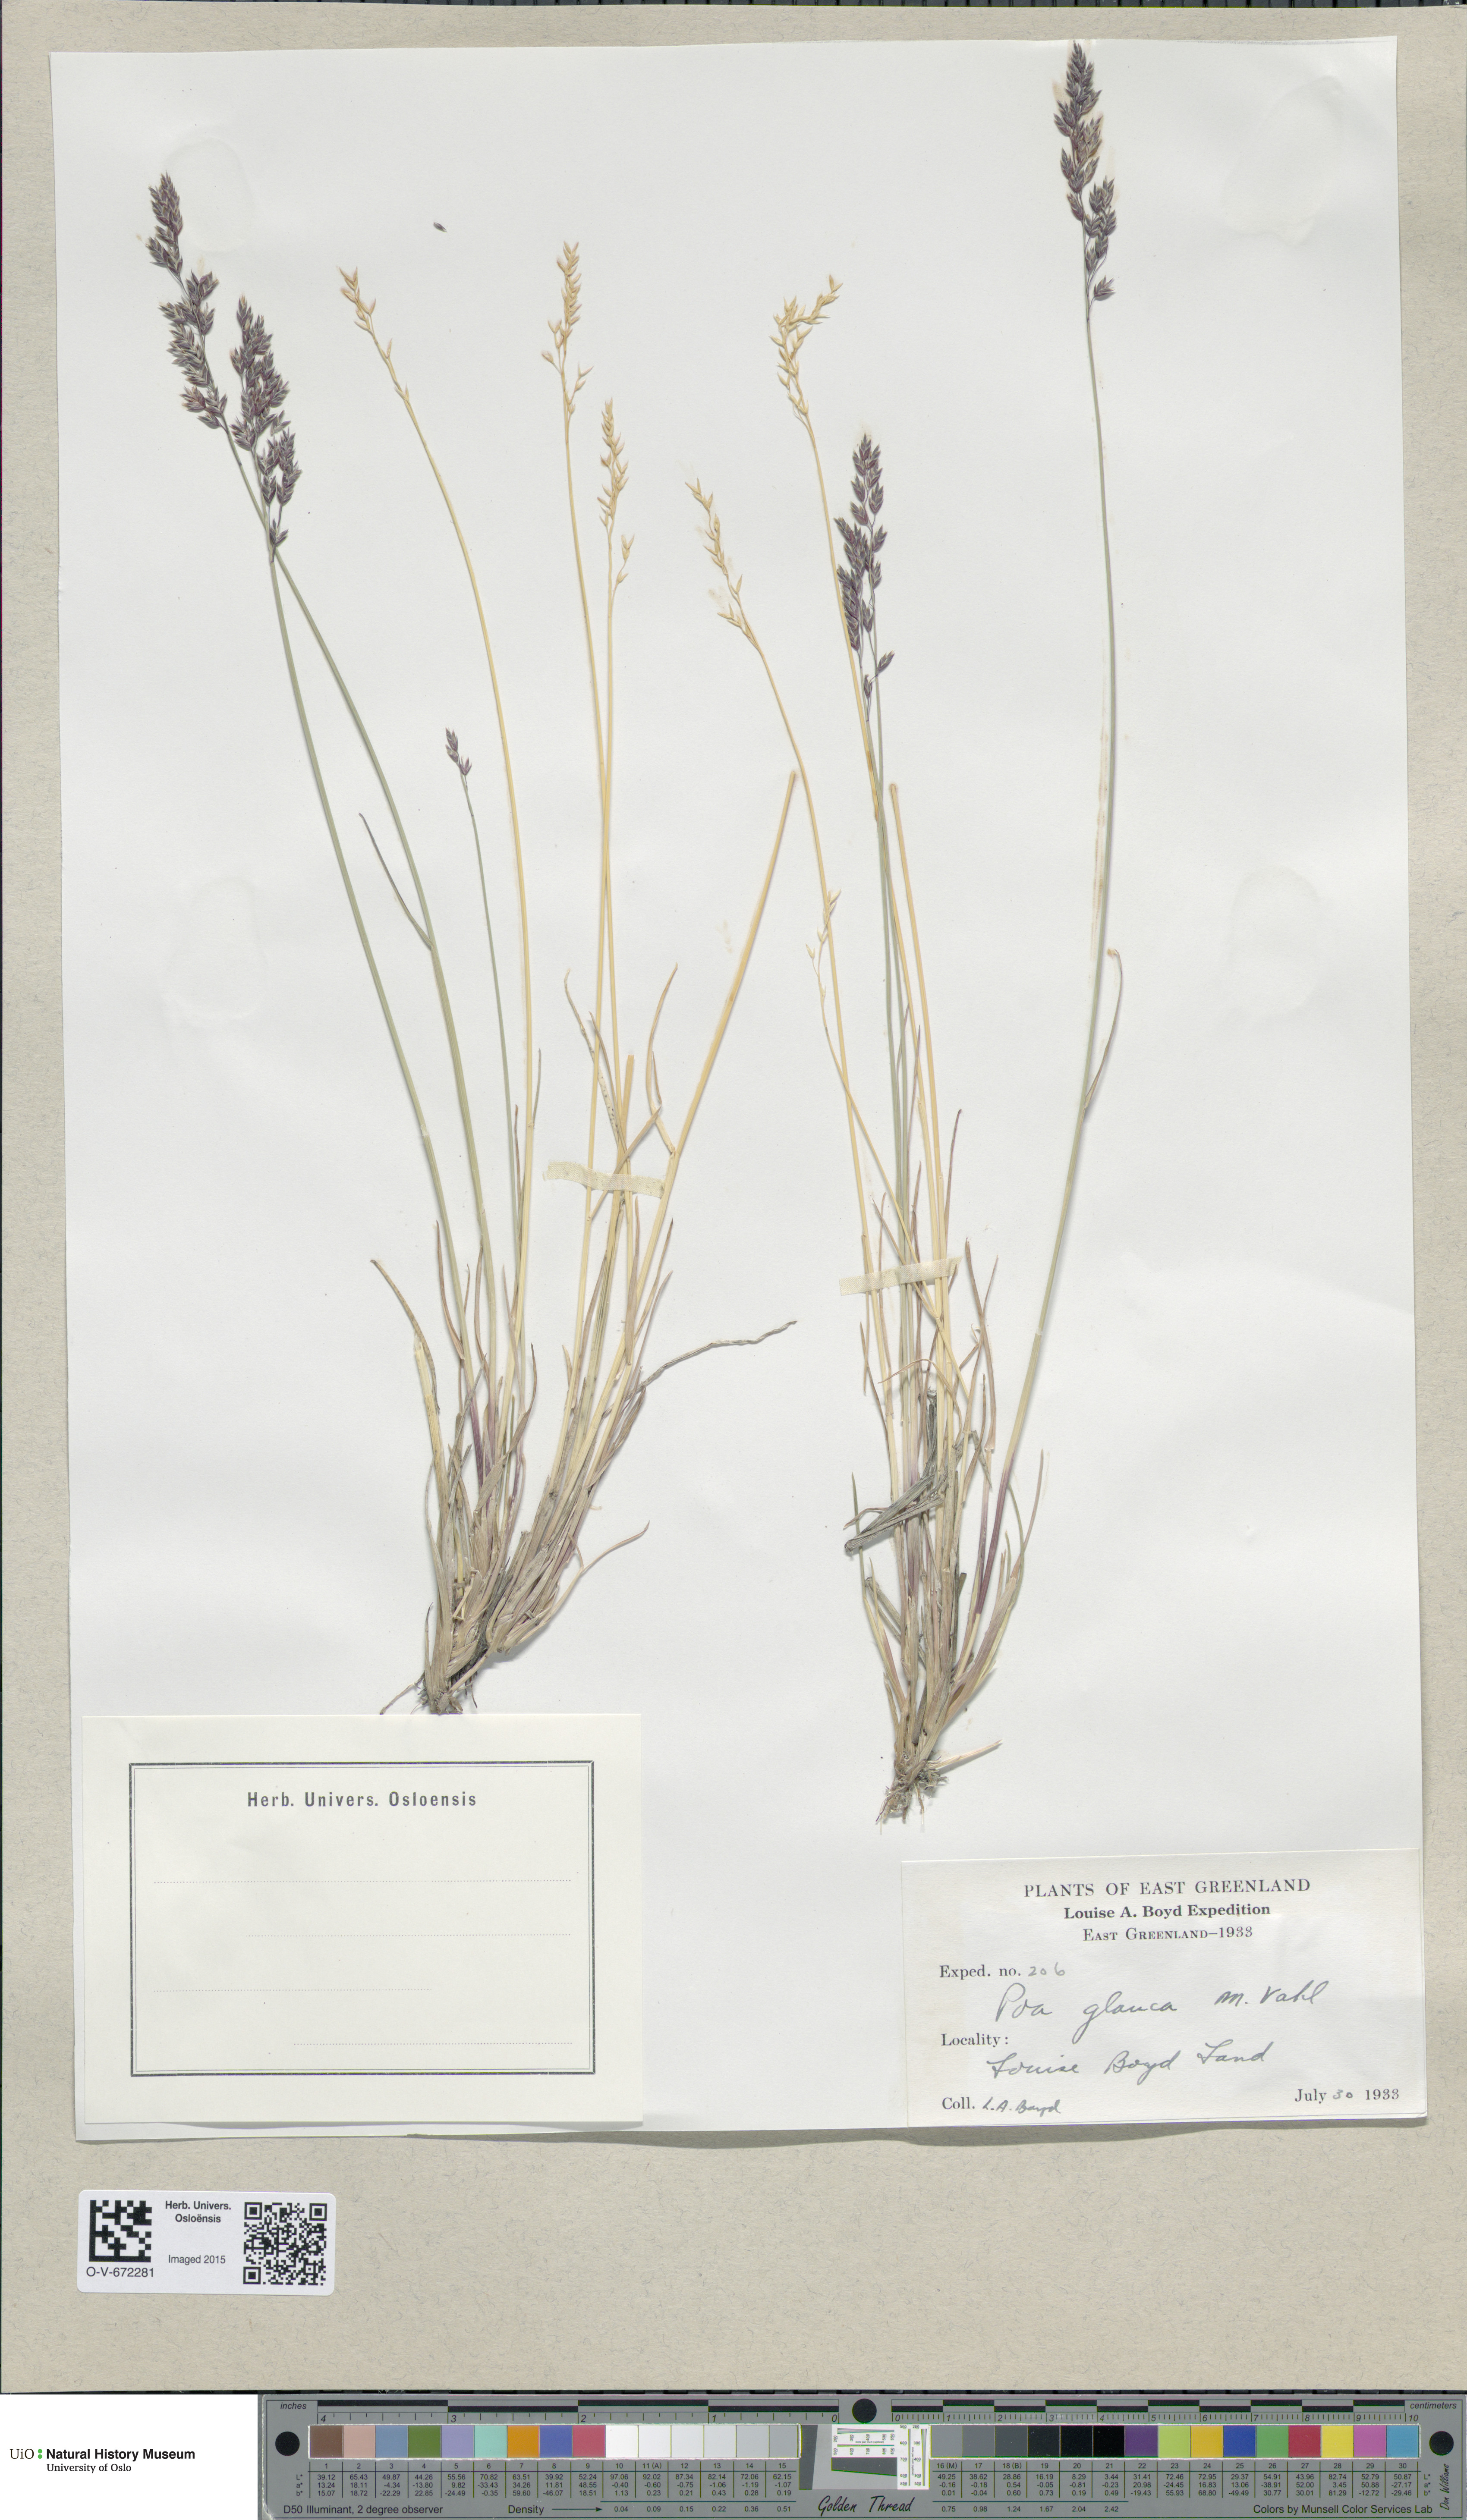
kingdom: Plantae
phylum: Tracheophyta
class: Liliopsida
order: Poales
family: Poaceae
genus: Poa
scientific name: Poa glauca
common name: Glaucous bluegrass
